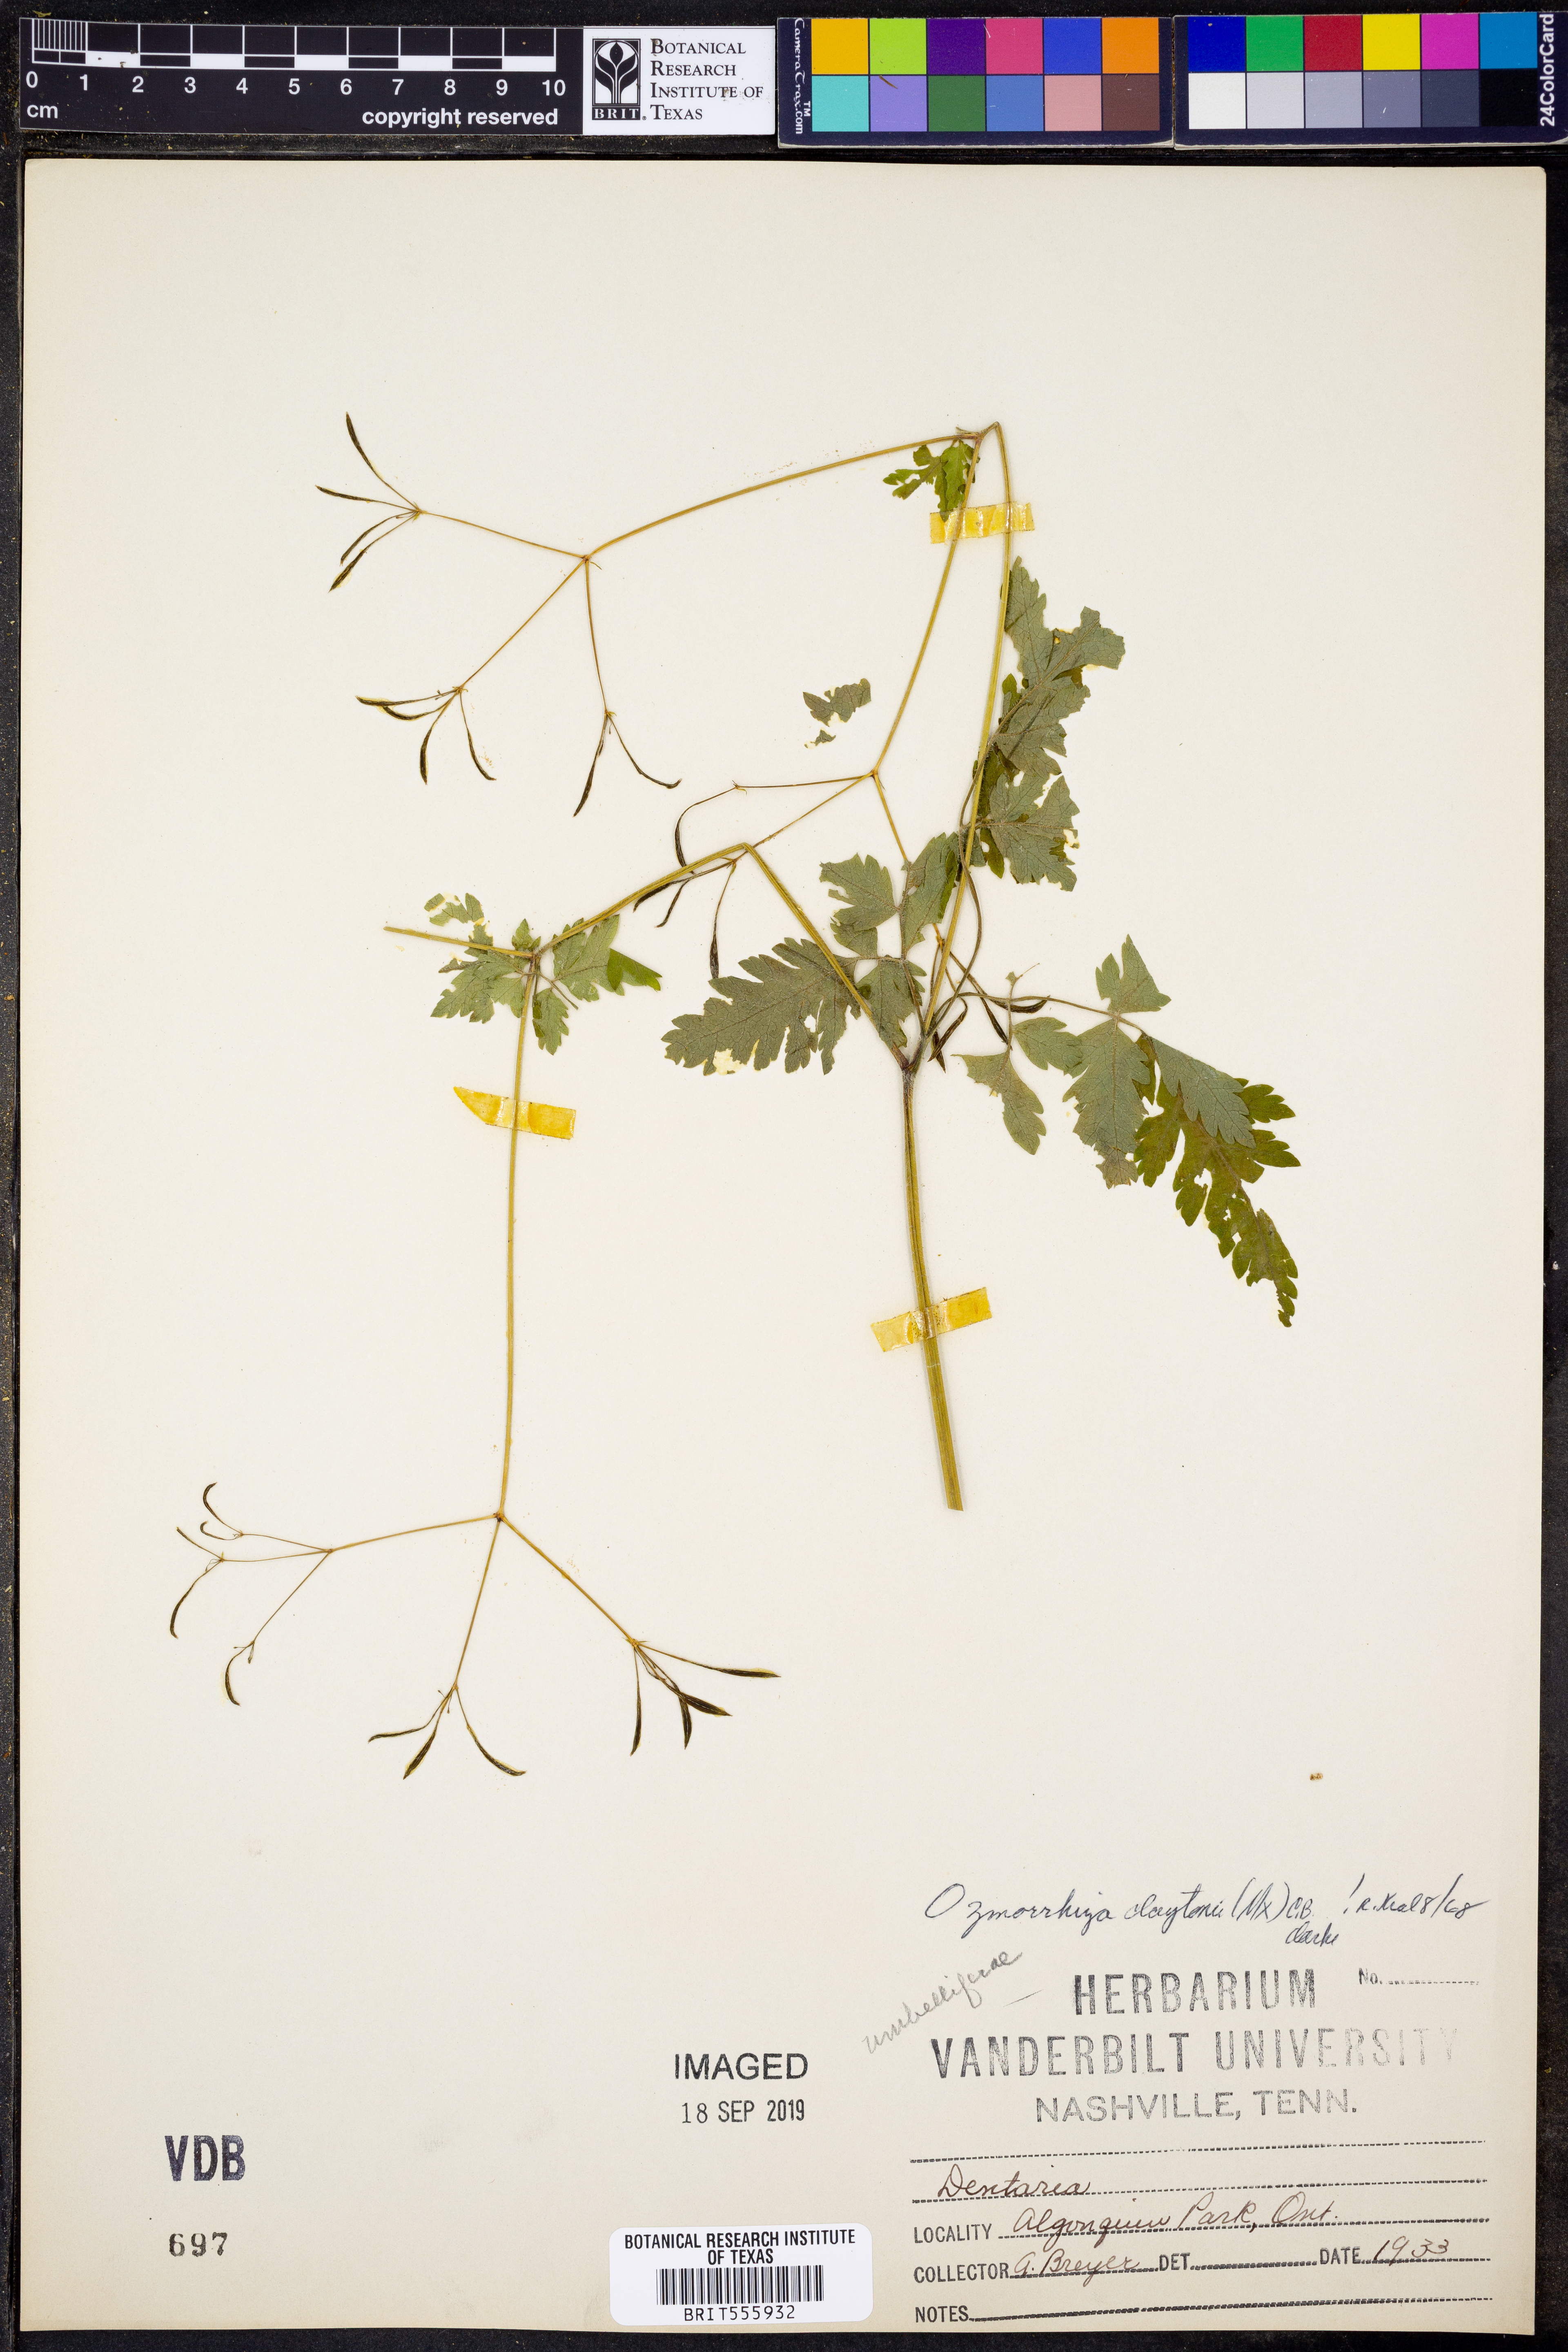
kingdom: Plantae
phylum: Tracheophyta
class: Magnoliopsida
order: Apiales
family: Apiaceae
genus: Osmorhiza
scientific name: Osmorhiza claytonii
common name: Hairy sweet cicely
